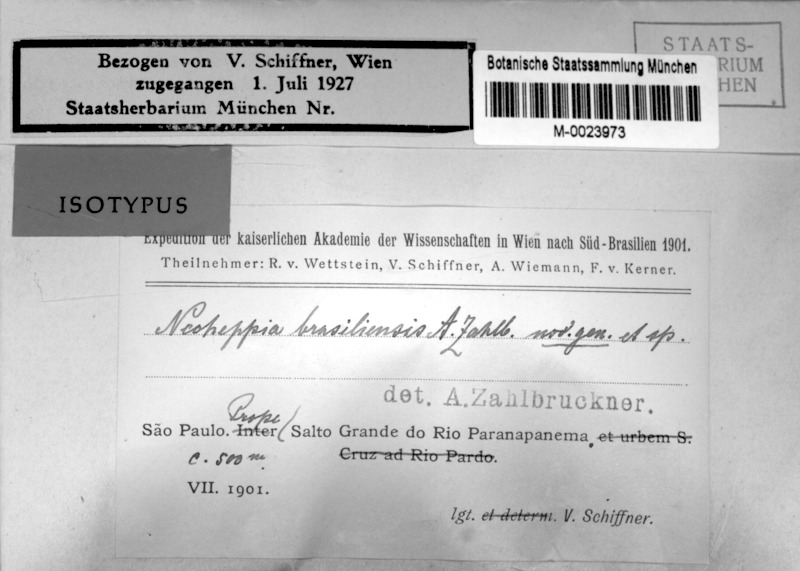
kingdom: Fungi
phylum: Ascomycota
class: Lichinomycetes
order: Lichinales
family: Peltulaceae
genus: Peltula
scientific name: Peltula brasiliensis
